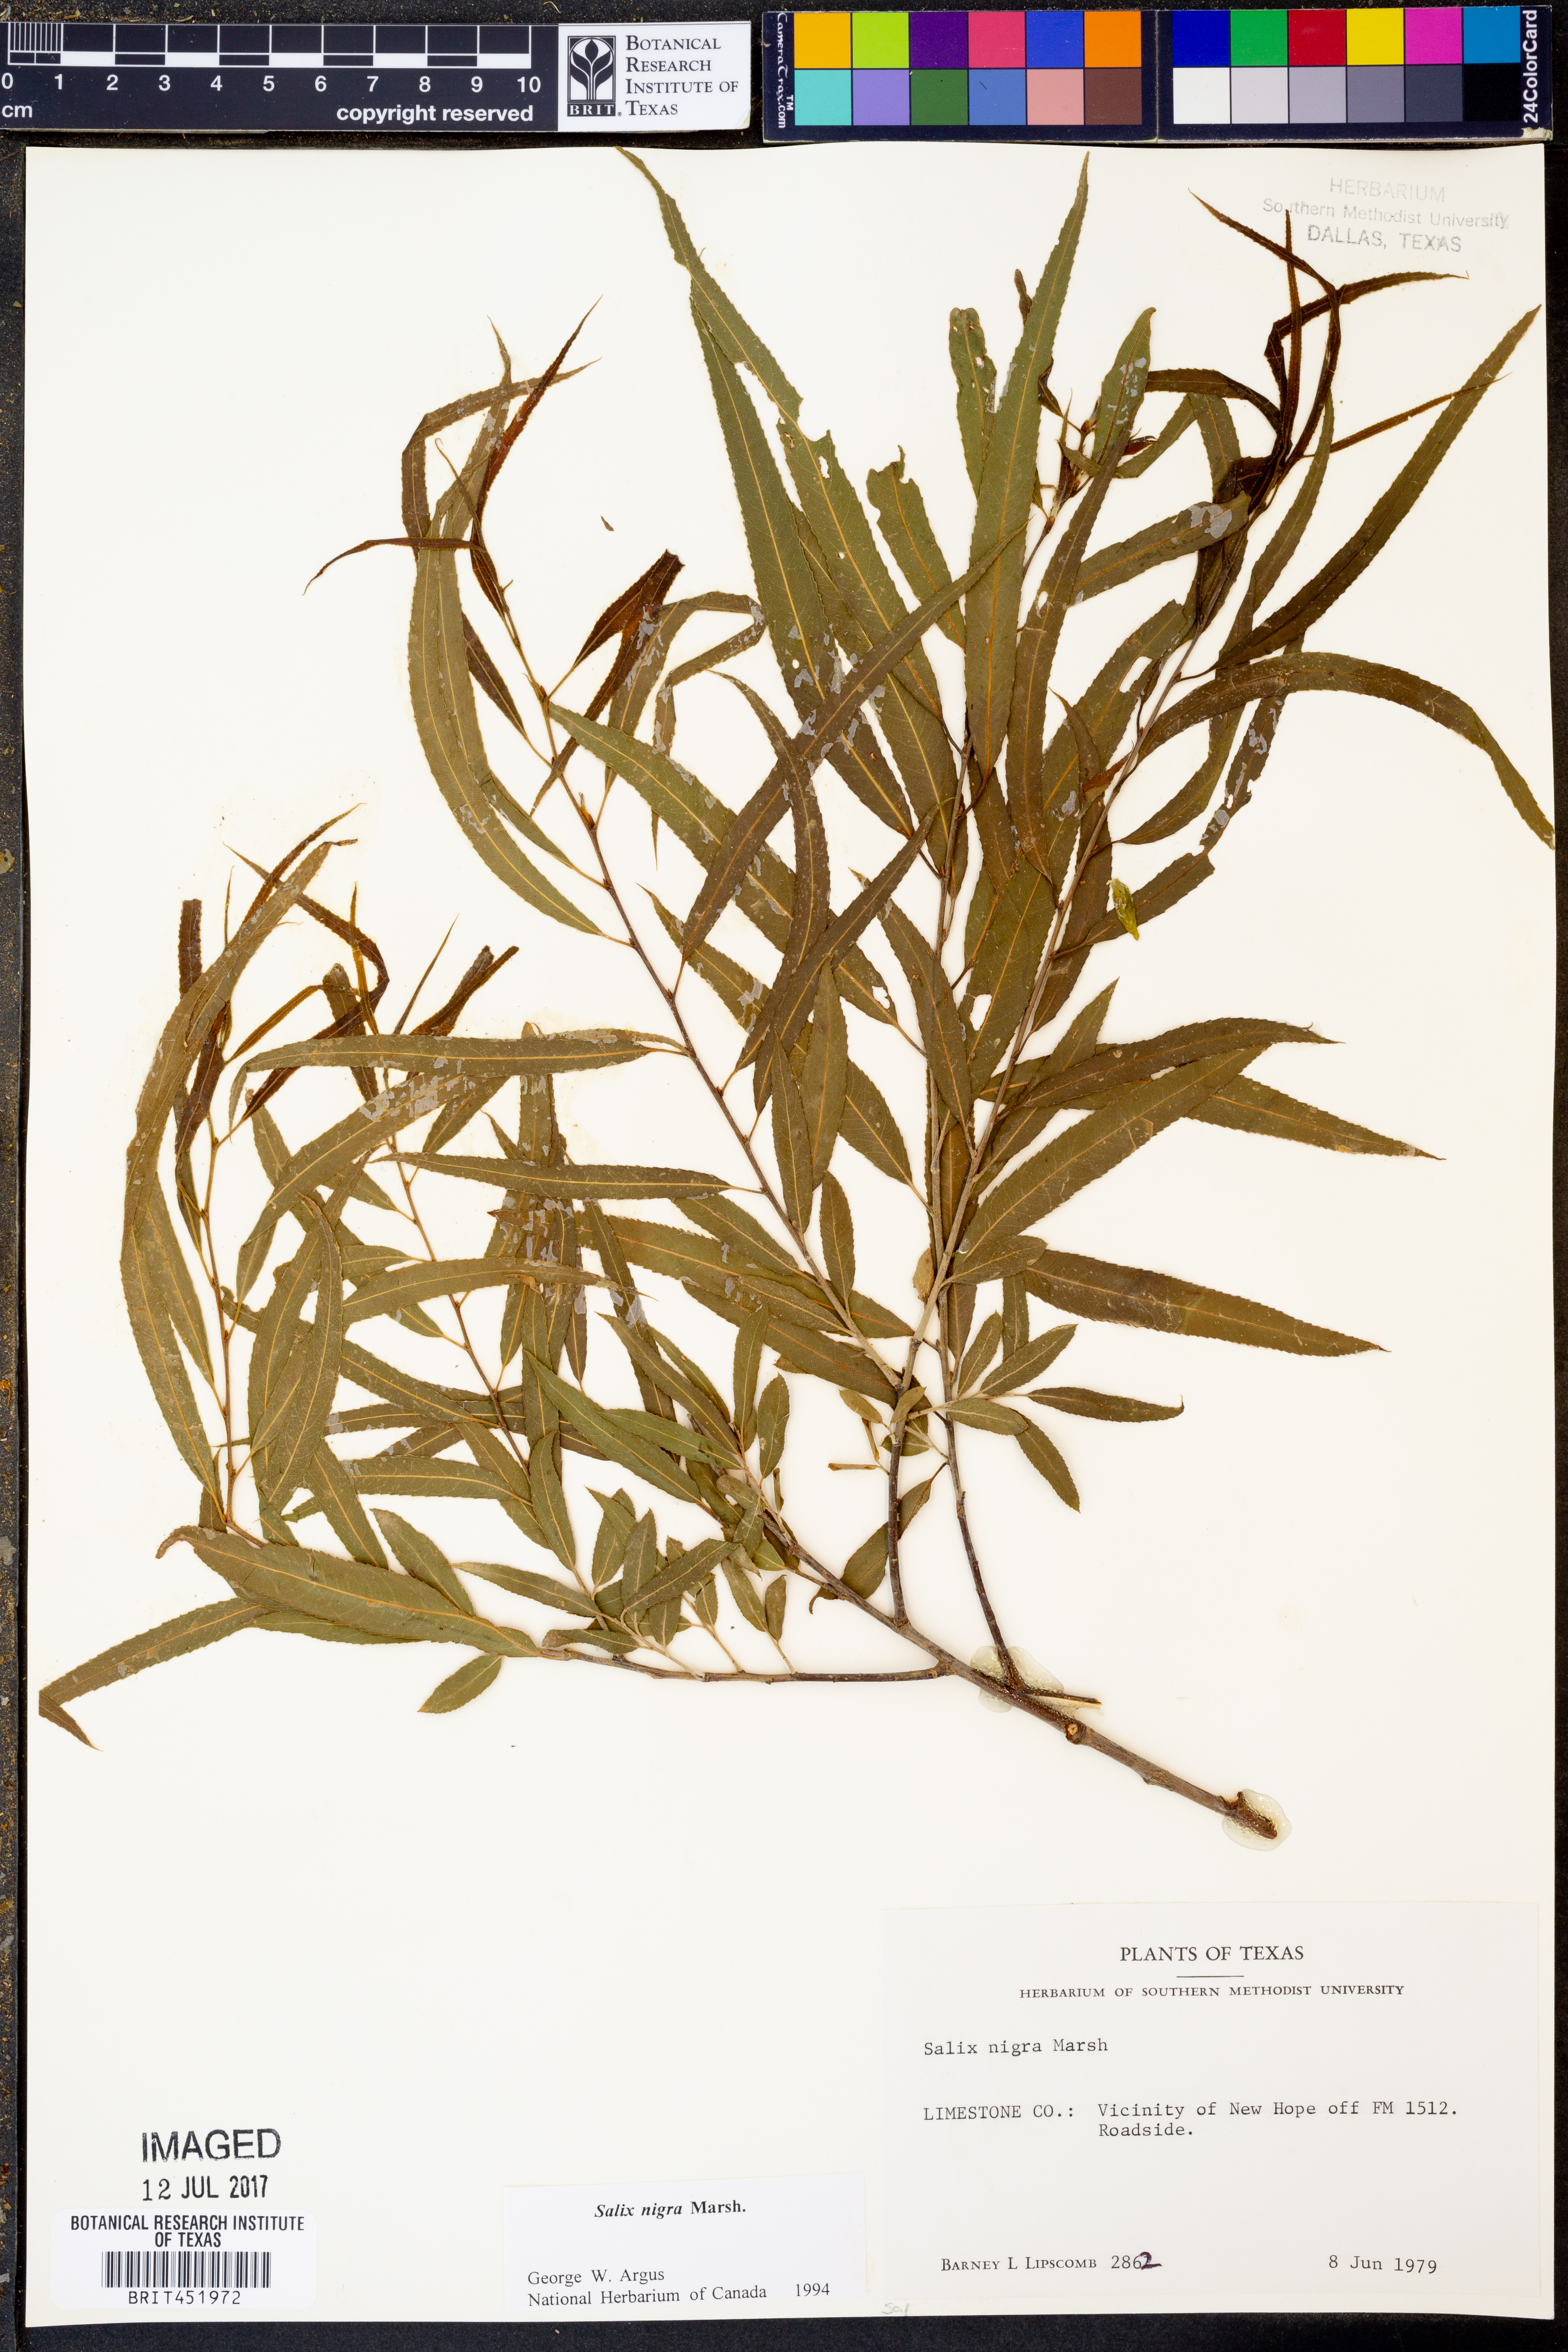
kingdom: Plantae
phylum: Tracheophyta
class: Magnoliopsida
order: Malpighiales
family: Salicaceae
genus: Salix
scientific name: Salix nigra
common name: Black willow
